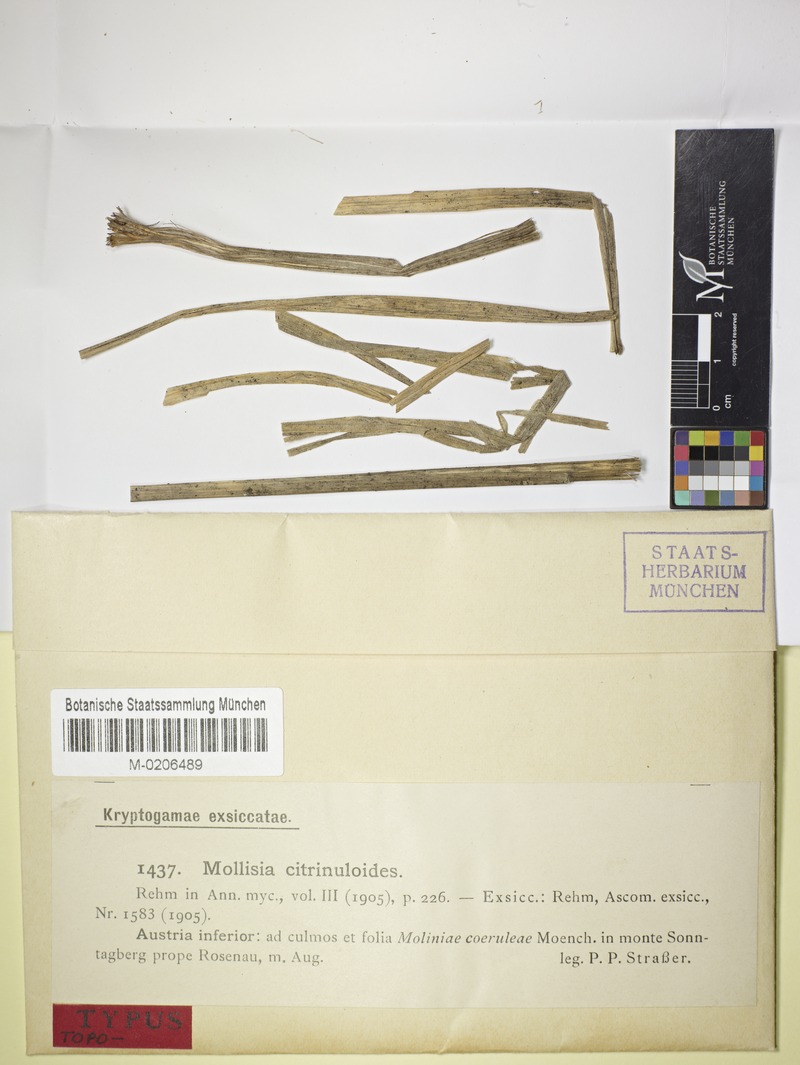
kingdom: Fungi
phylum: Ascomycota
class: Leotiomycetes
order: Helotiales
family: Mollisiaceae
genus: Mollisia
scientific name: Mollisia citrinuloides
